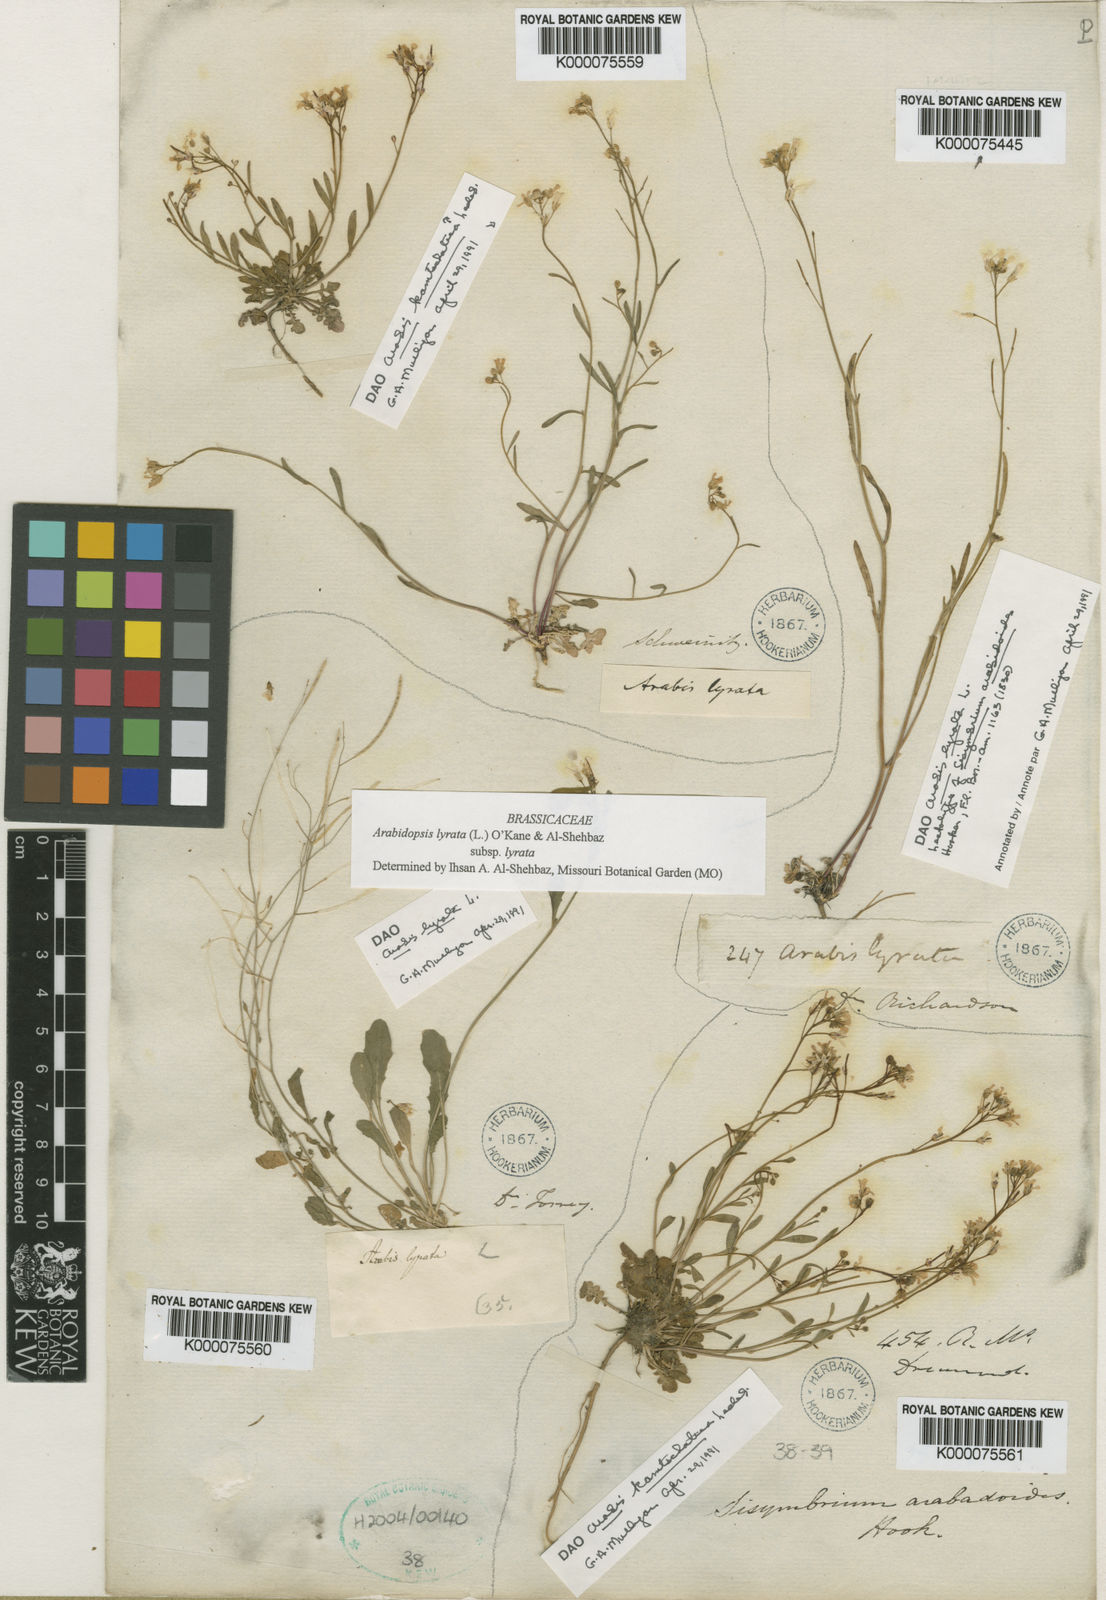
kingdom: Plantae
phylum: Tracheophyta
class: Magnoliopsida
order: Brassicales
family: Brassicaceae
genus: Arabidopsis
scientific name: Arabidopsis lyrata
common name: Lyrate rockcress
